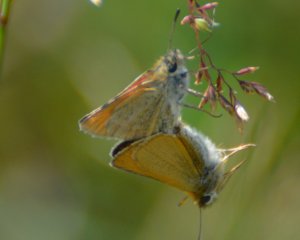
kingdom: Animalia
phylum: Arthropoda
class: Insecta
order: Lepidoptera
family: Hesperiidae
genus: Thymelicus
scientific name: Thymelicus lineola
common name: European Skipper
